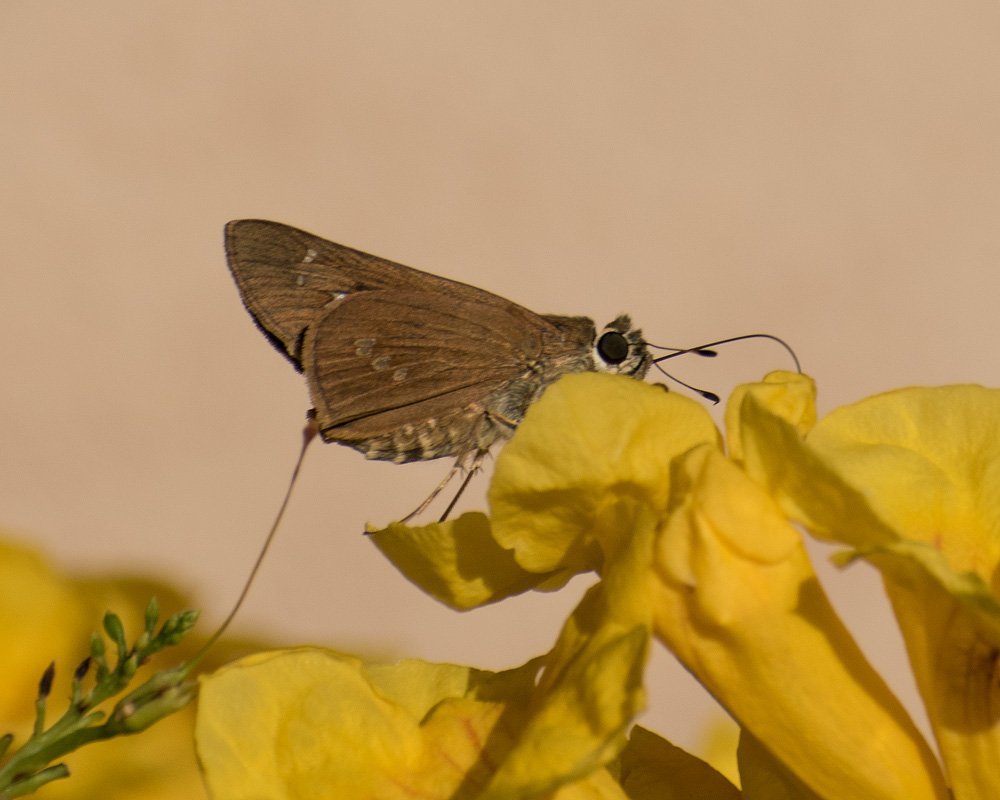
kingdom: Animalia
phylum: Arthropoda
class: Insecta
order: Lepidoptera
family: Hesperiidae
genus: Calpodes
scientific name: Calpodes ethlius
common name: Brazilian Skipper
